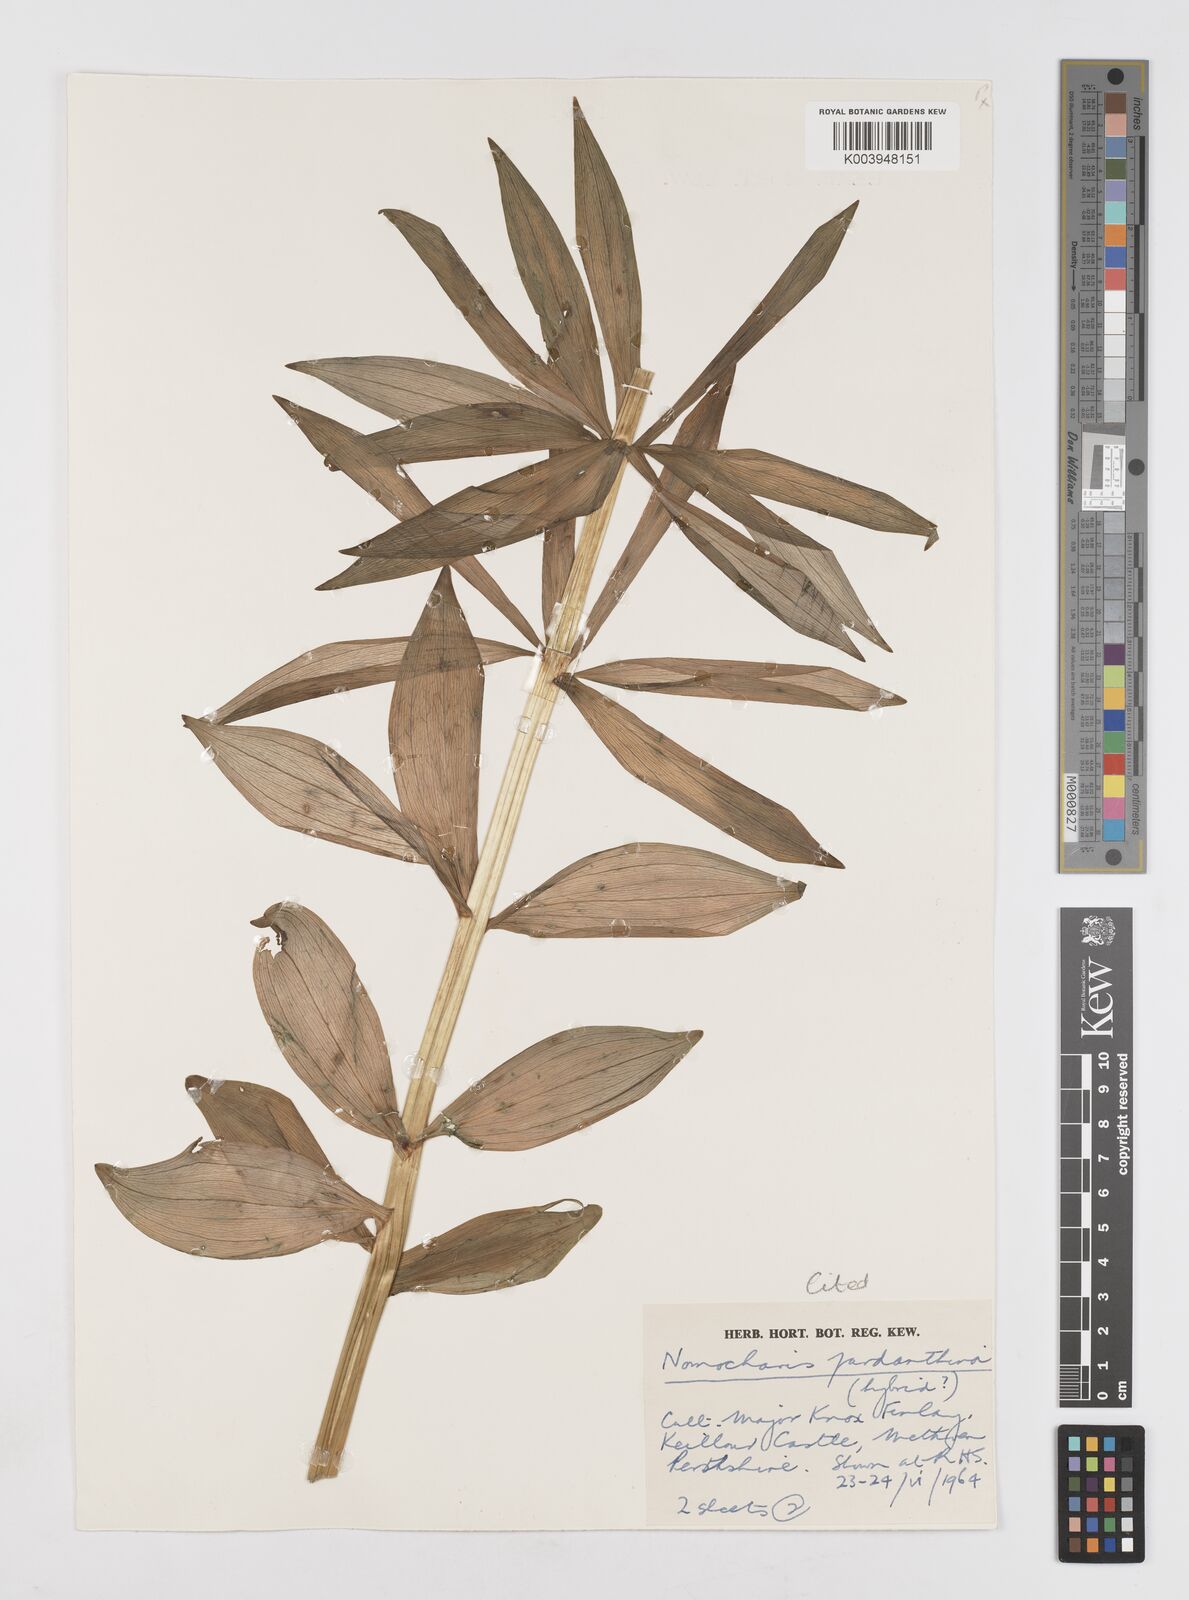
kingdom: Plantae
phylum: Tracheophyta
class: Liliopsida
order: Liliales
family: Liliaceae
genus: Lilium
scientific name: Lilium Nomocharis finlayorum
